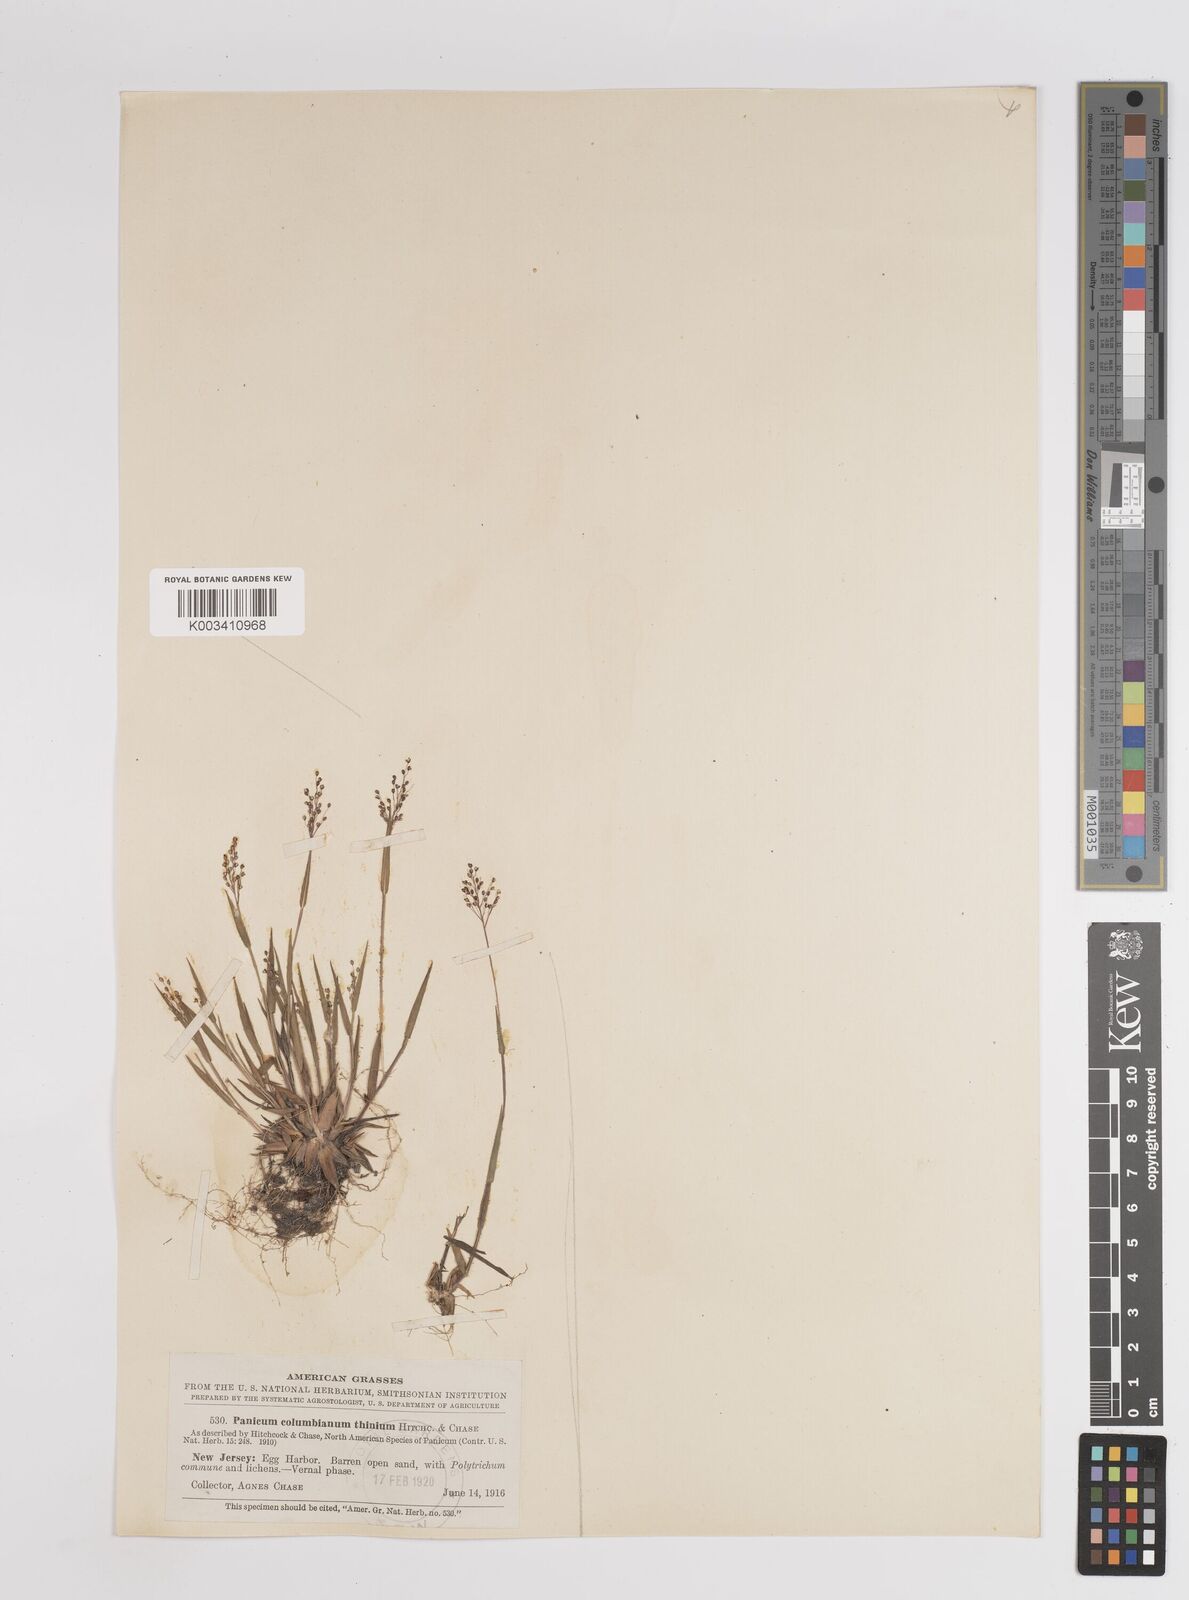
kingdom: Plantae
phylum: Tracheophyta
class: Liliopsida
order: Poales
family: Poaceae
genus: Dichanthelium
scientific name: Dichanthelium columbianum
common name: Hemlock panic grass
